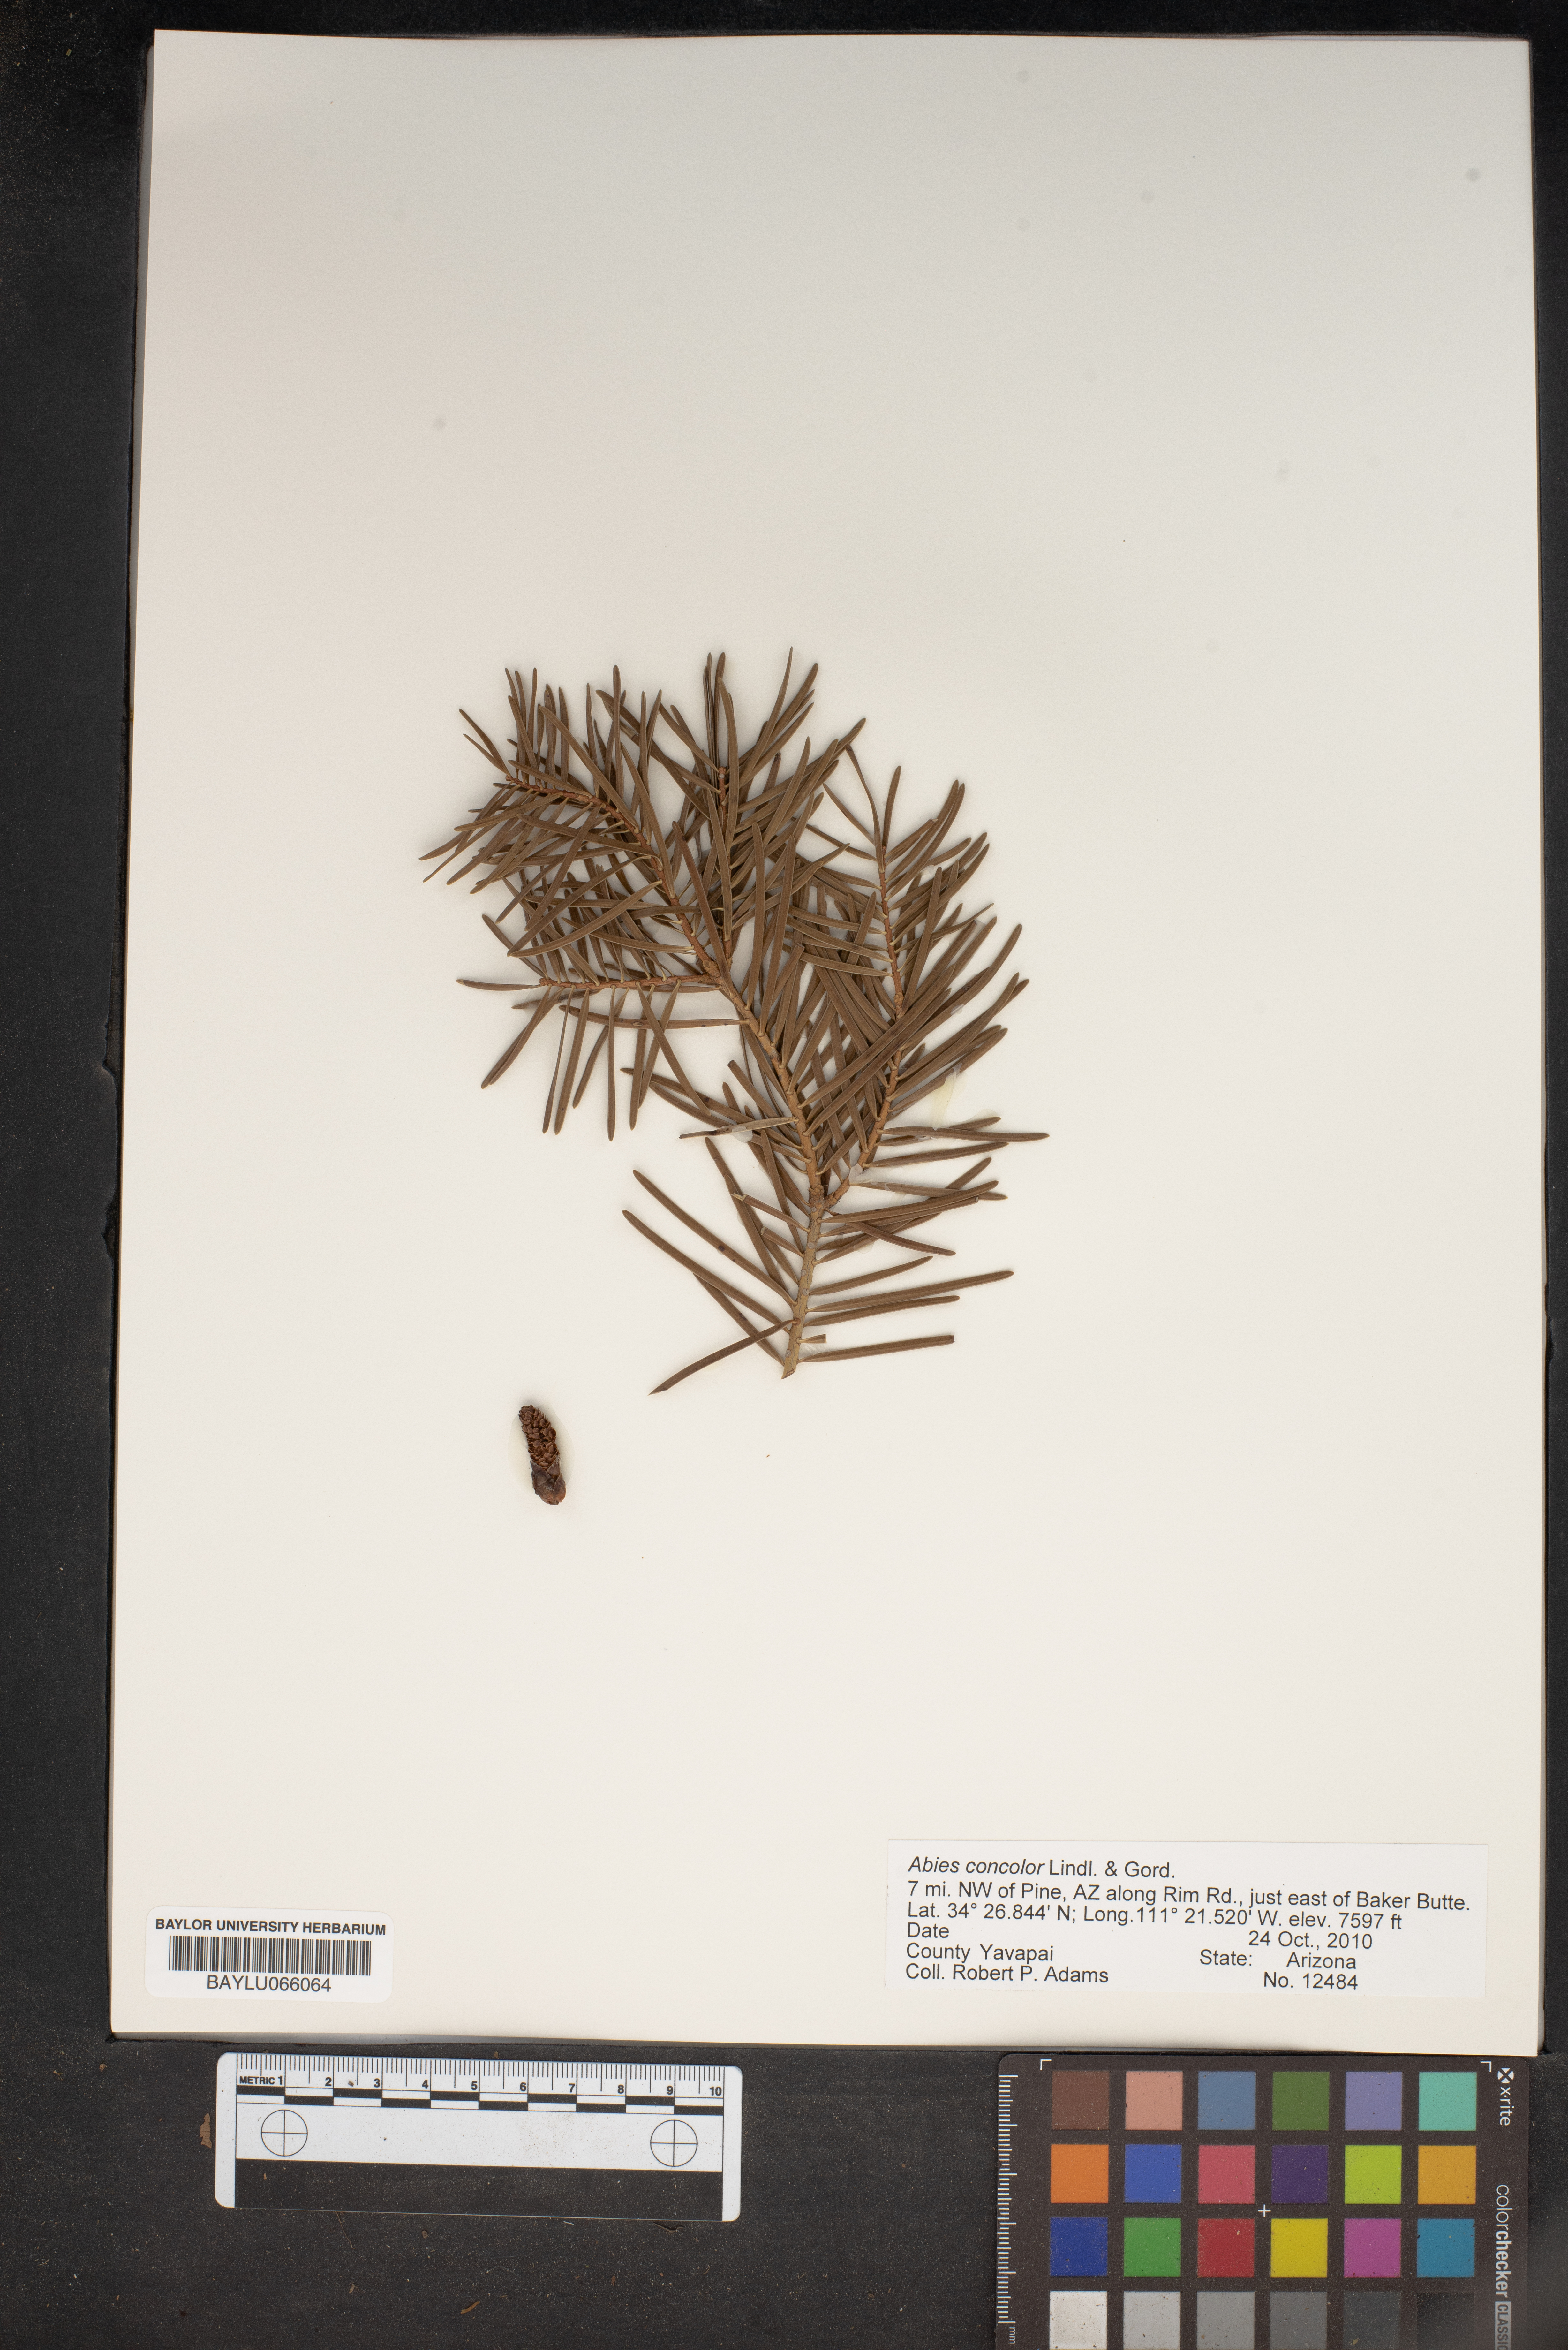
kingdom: Plantae
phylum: Tracheophyta
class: Pinopsida
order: Pinales
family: Pinaceae
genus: Abies
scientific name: Abies concolor
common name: Colorado fir
